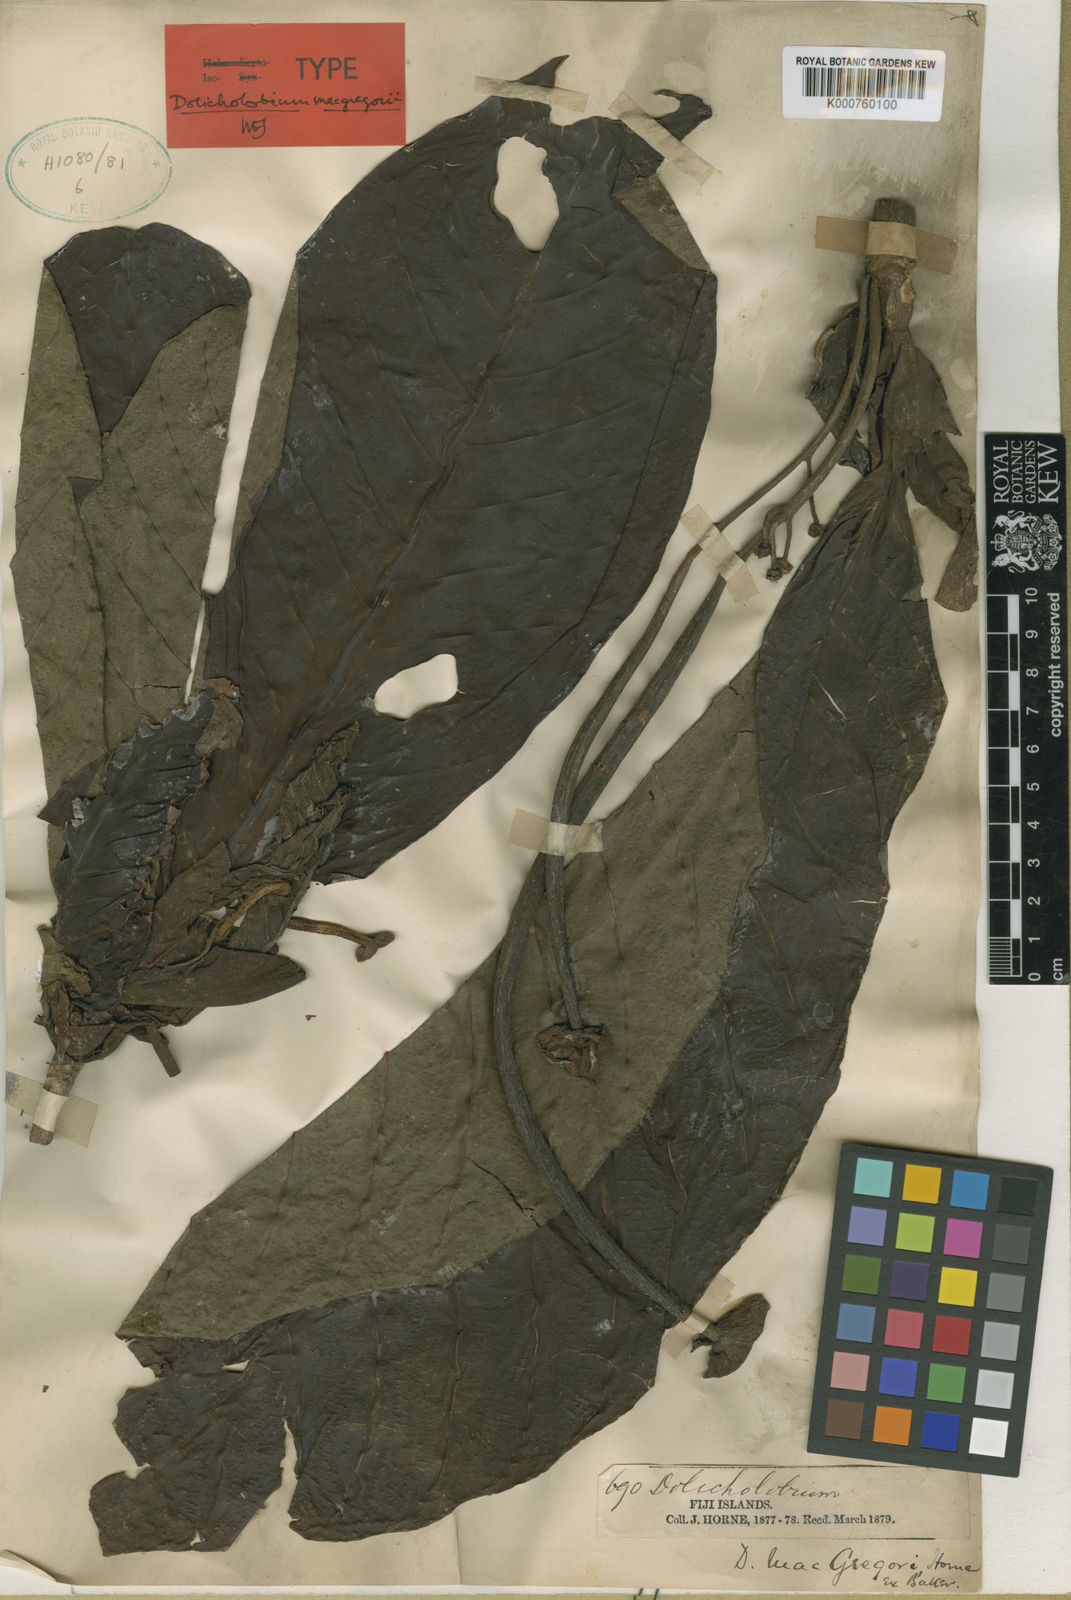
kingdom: Plantae
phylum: Tracheophyta
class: Magnoliopsida
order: Gentianales
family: Rubiaceae
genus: Dolicholobium
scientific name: Dolicholobium macgregorii
